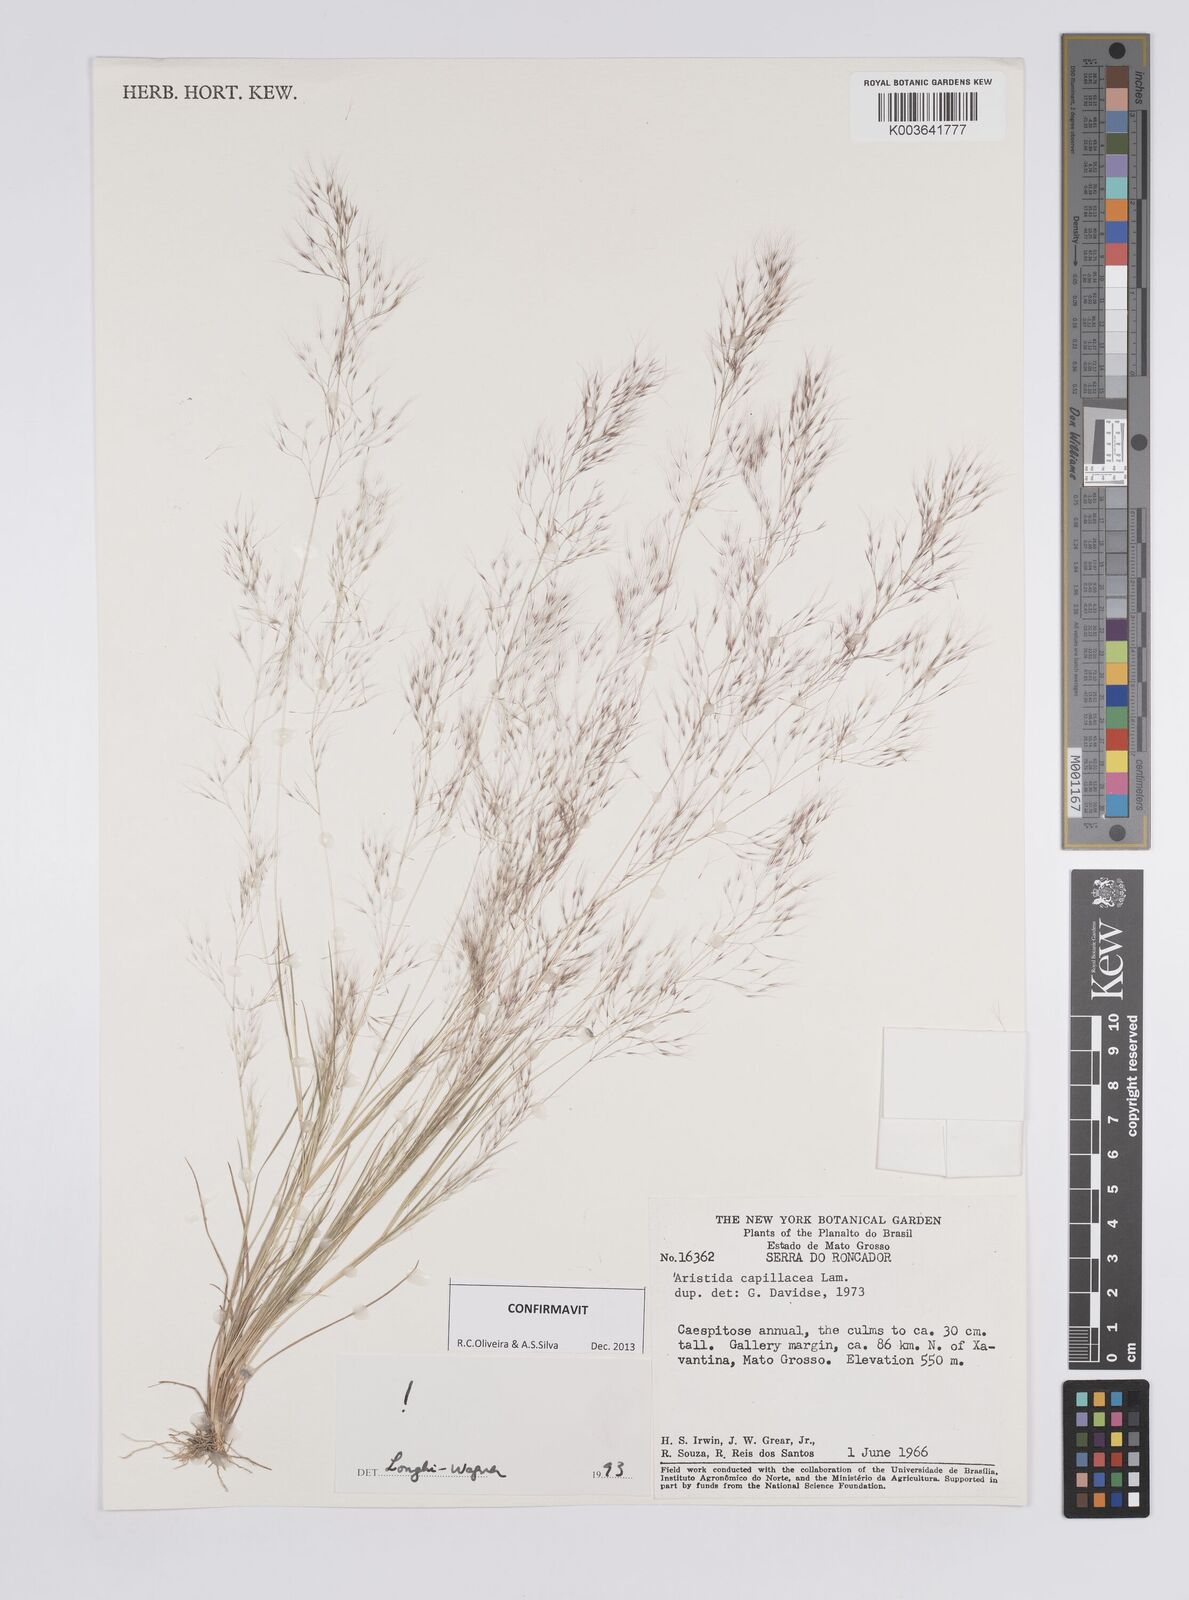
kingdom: Plantae
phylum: Tracheophyta
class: Liliopsida
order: Poales
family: Poaceae
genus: Aristida
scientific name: Aristida capillacea
